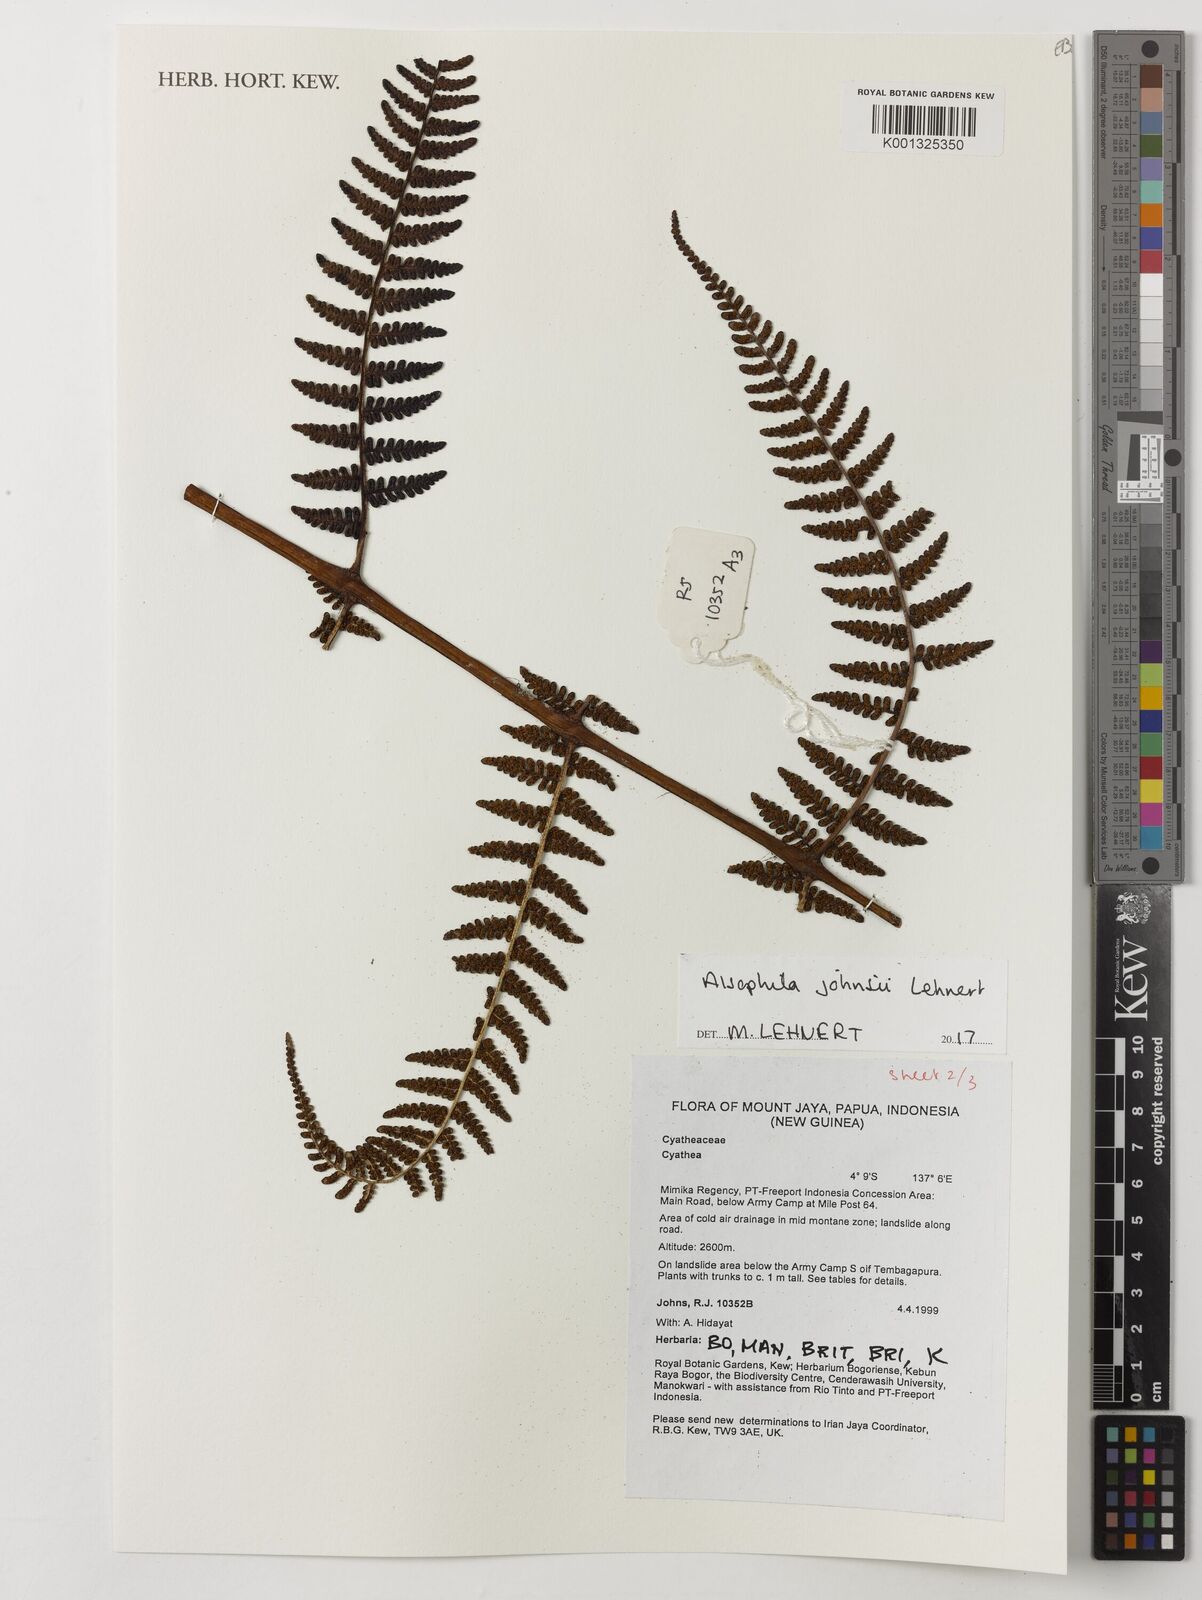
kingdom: Plantae
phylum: Tracheophyta
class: Polypodiopsida
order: Cyatheales
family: Cyatheaceae
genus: Alsophila
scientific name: Alsophila johnsii
